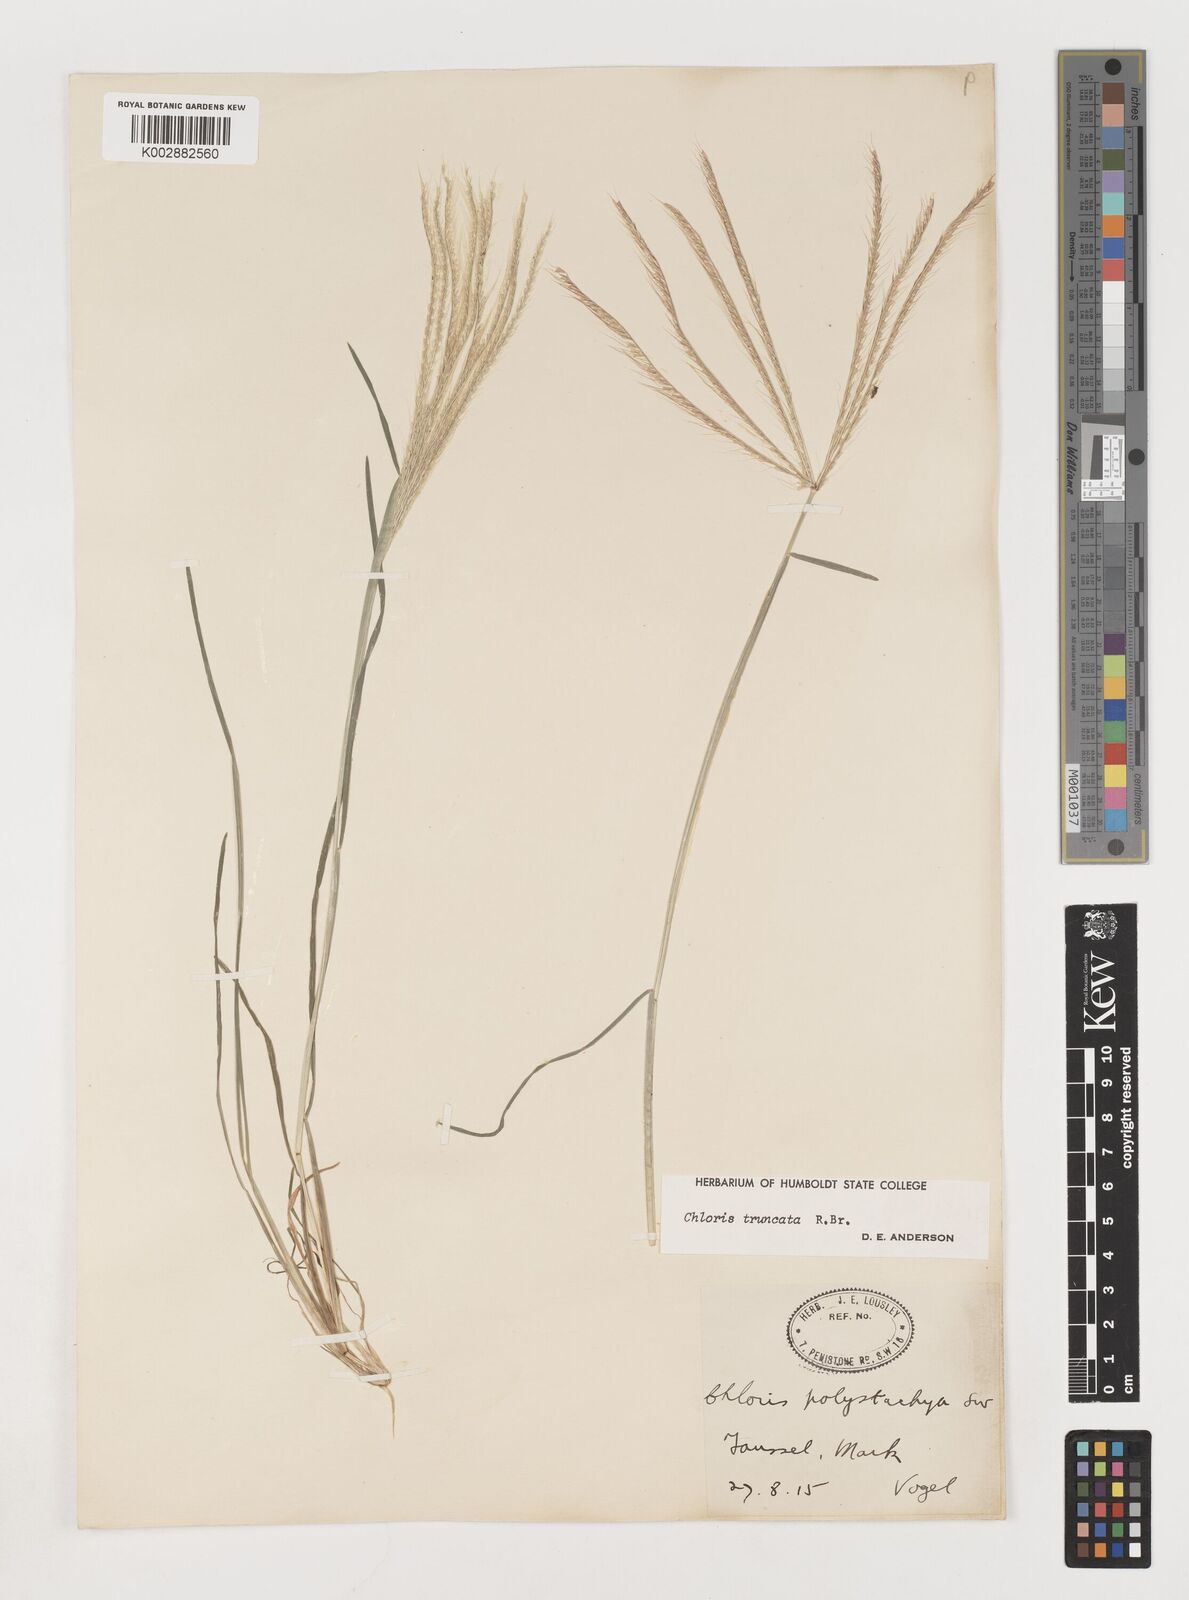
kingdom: Plantae
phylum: Tracheophyta
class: Liliopsida
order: Poales
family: Poaceae
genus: Chloris
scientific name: Chloris truncata
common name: Windmill-grass
